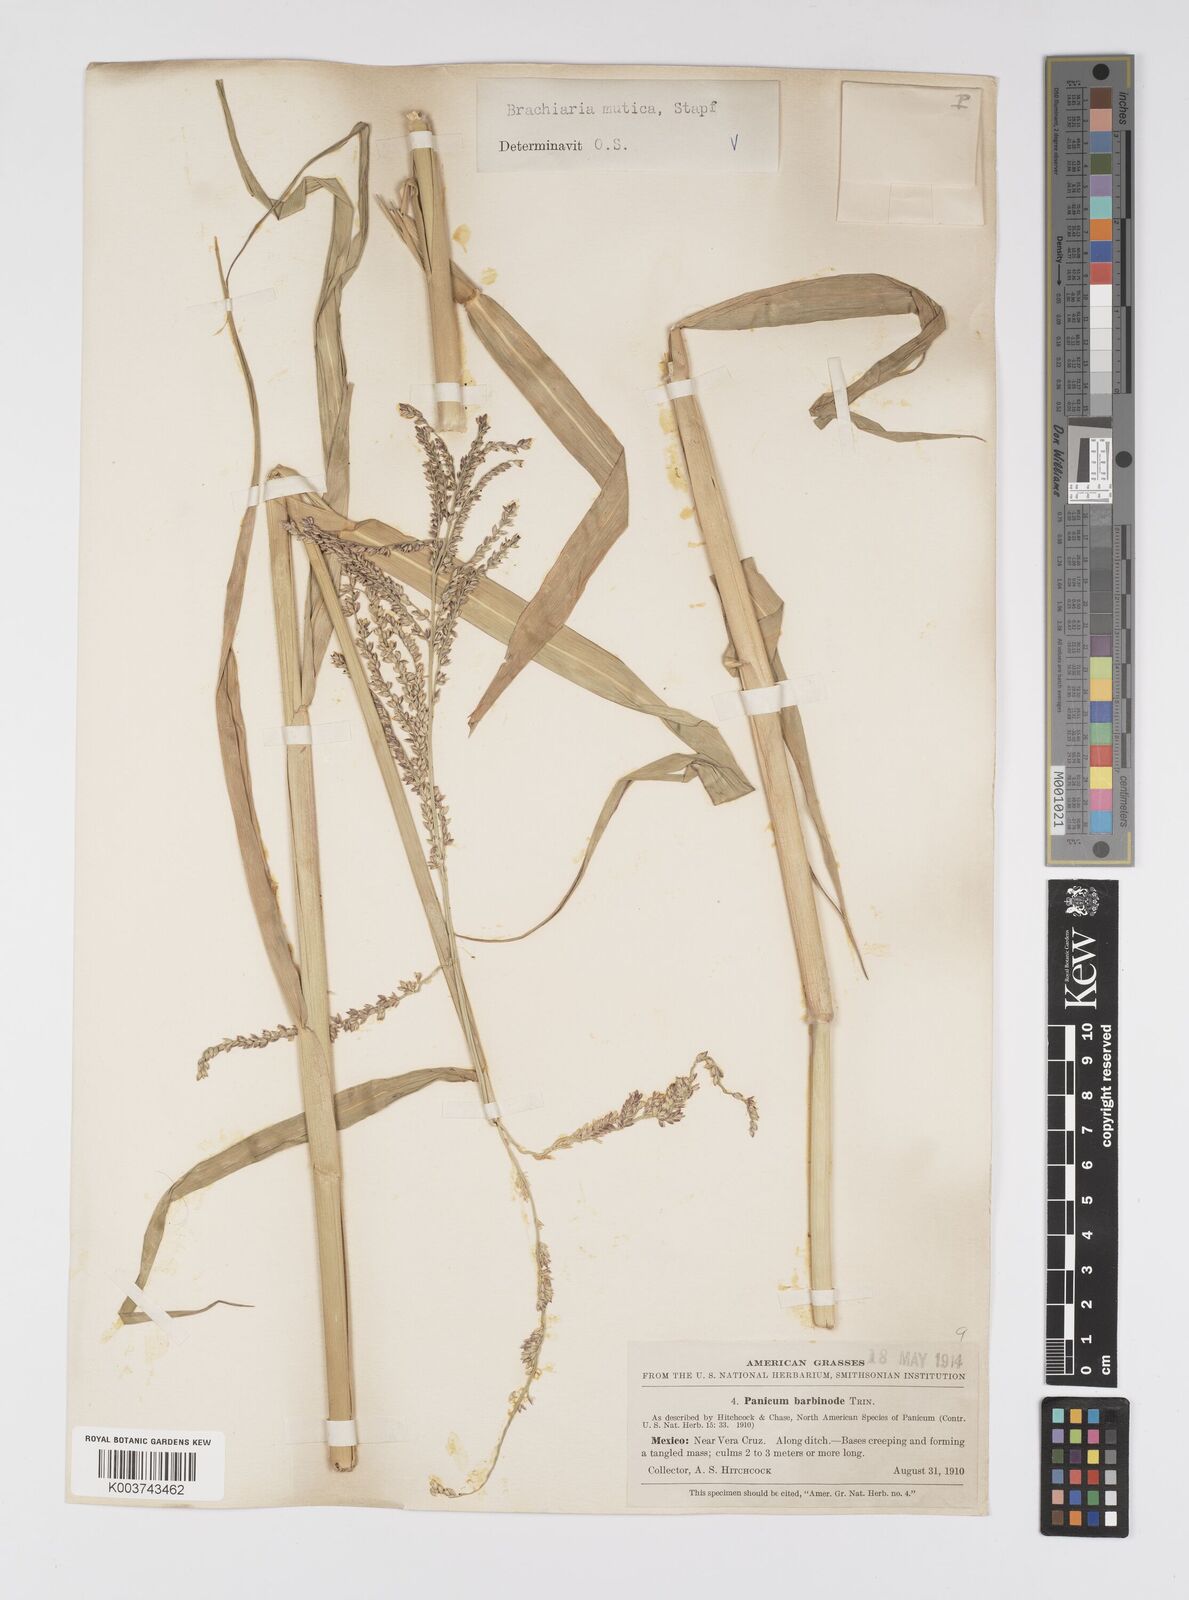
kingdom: Plantae
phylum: Tracheophyta
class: Liliopsida
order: Poales
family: Poaceae
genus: Urochloa
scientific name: Urochloa mutica
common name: Para grass
